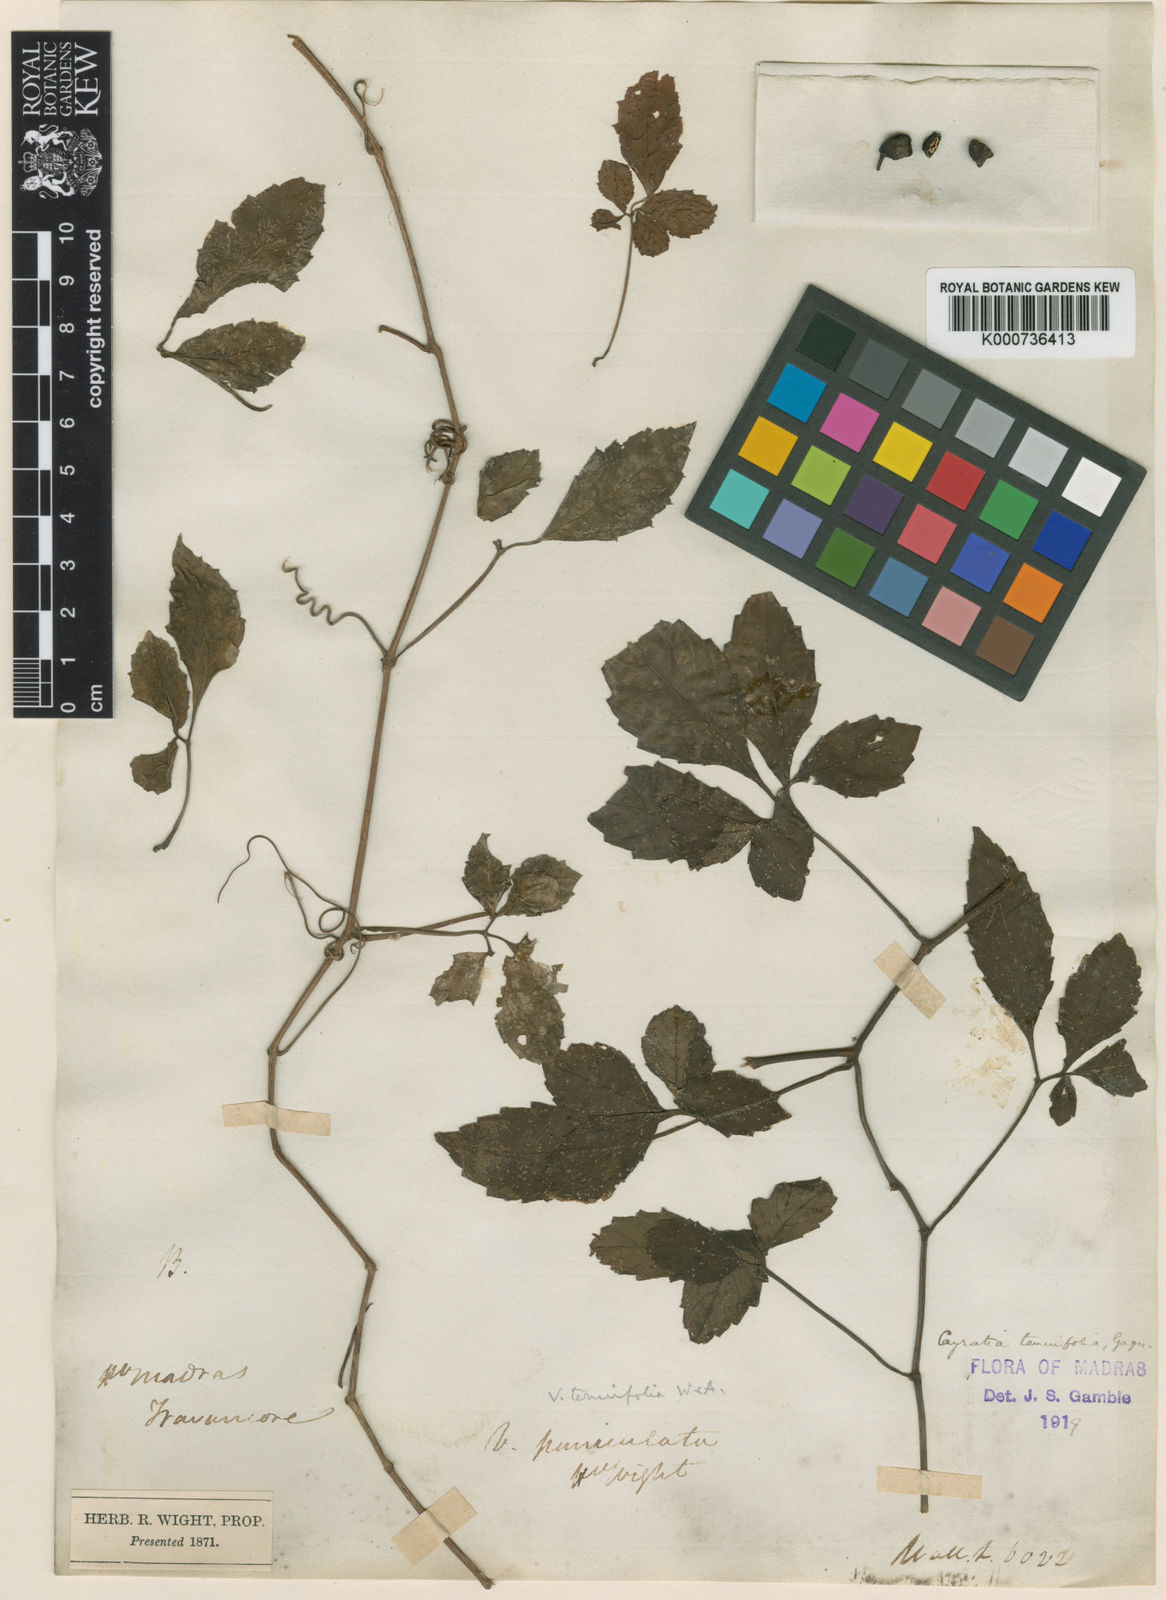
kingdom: Plantae
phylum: Tracheophyta
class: Magnoliopsida
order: Vitales
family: Vitaceae
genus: Causonis
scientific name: Causonis tenuifolia
